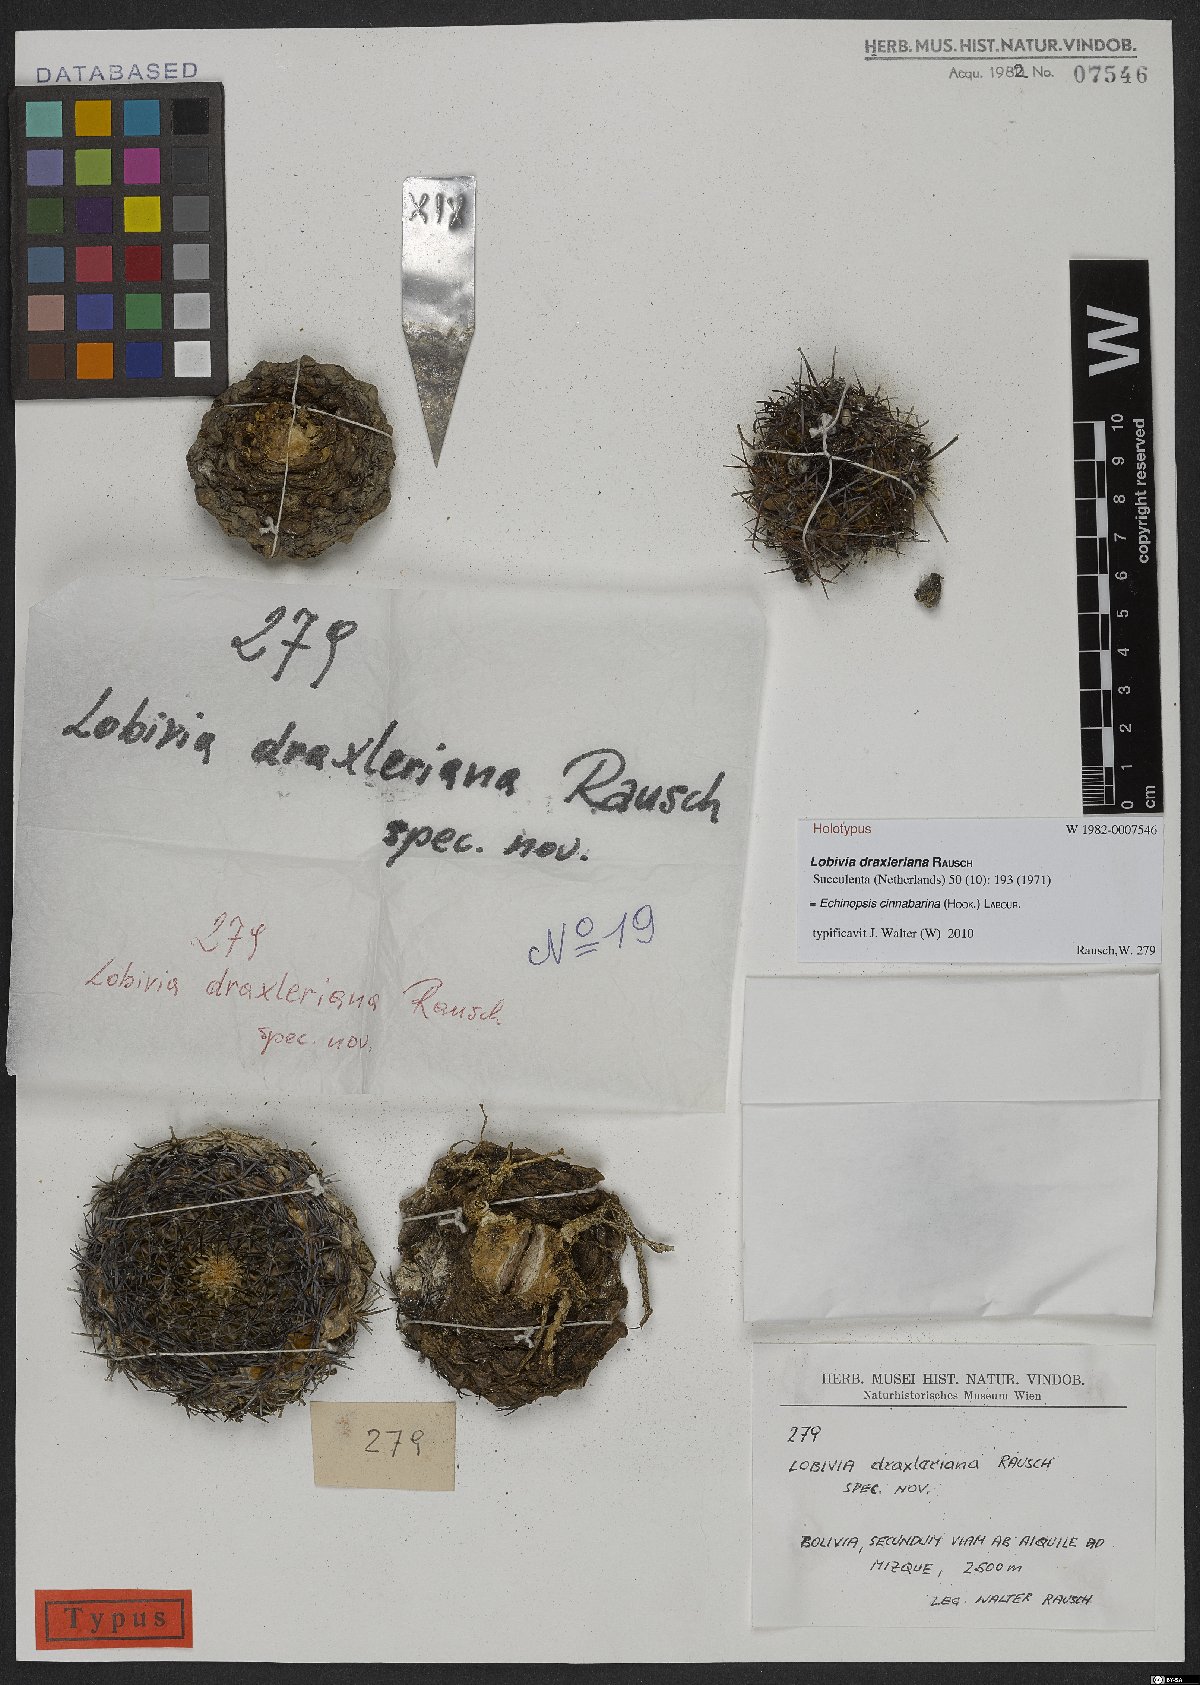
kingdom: Plantae
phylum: Tracheophyta
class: Magnoliopsida
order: Caryophyllales
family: Cactaceae
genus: Lobivia
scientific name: Lobivia cinnabarina
